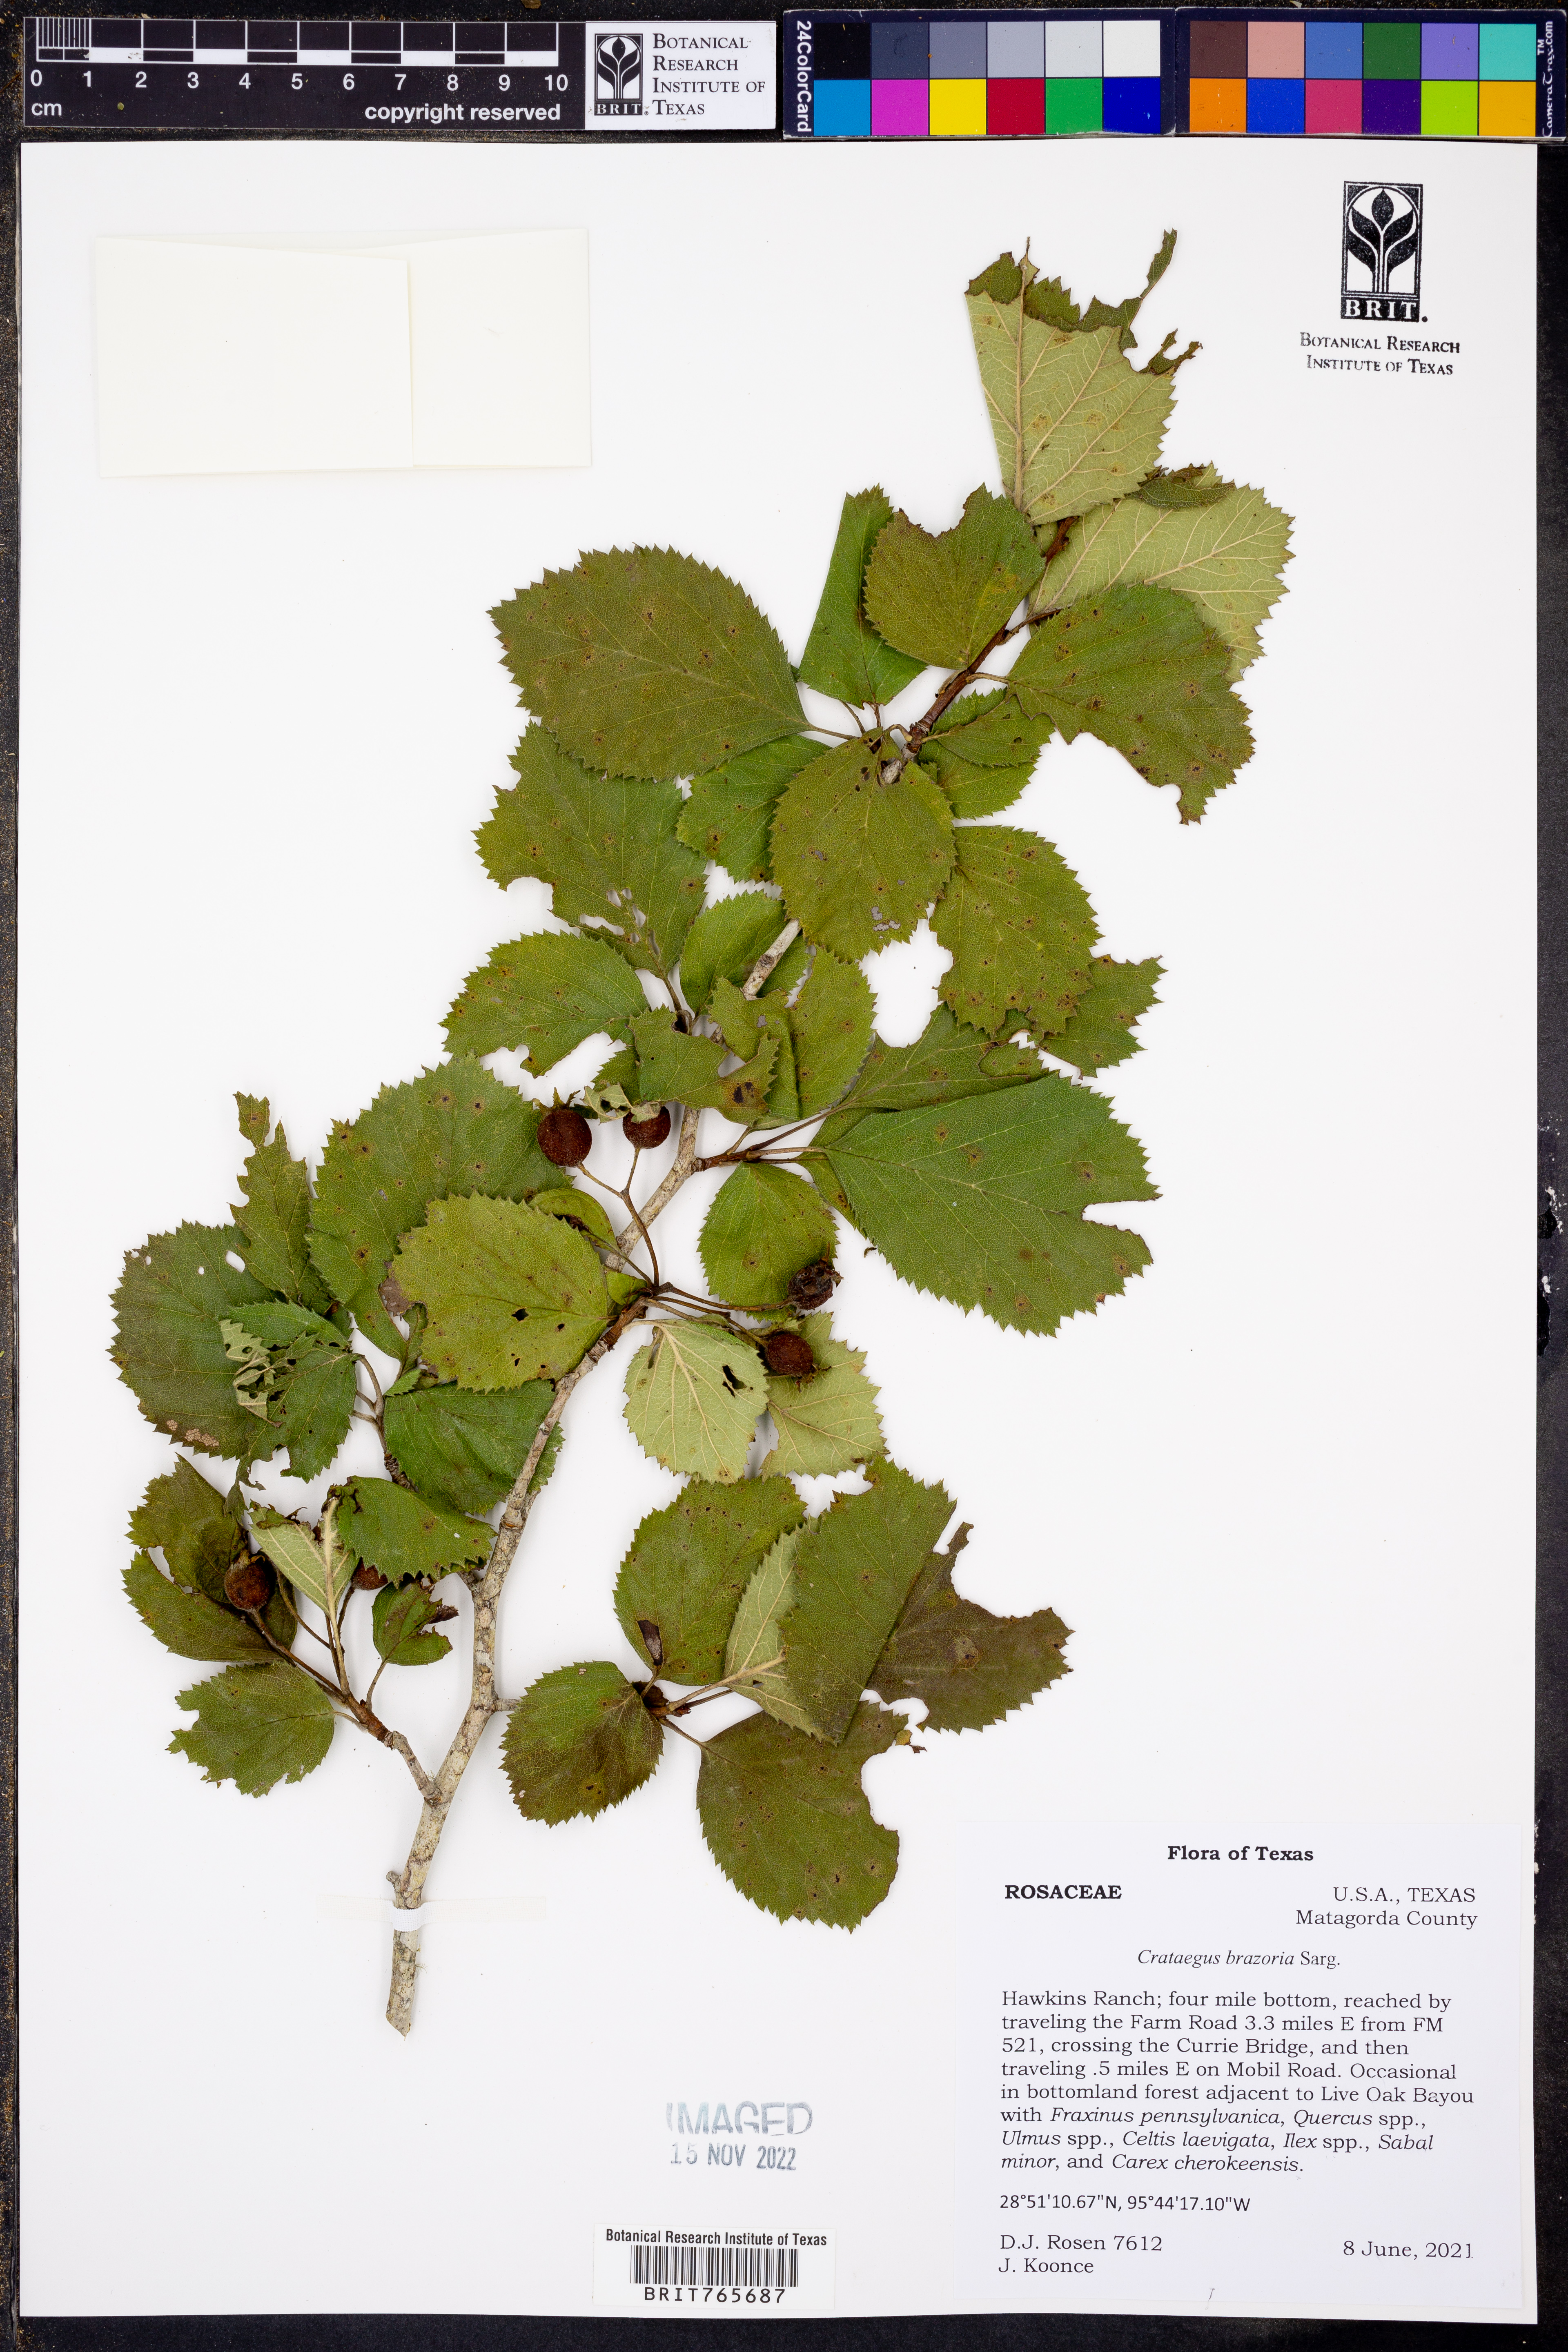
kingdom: Plantae
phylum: Tracheophyta
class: Magnoliopsida
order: Rosales
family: Rosaceae
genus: Crataegus
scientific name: Crataegus brazoria
